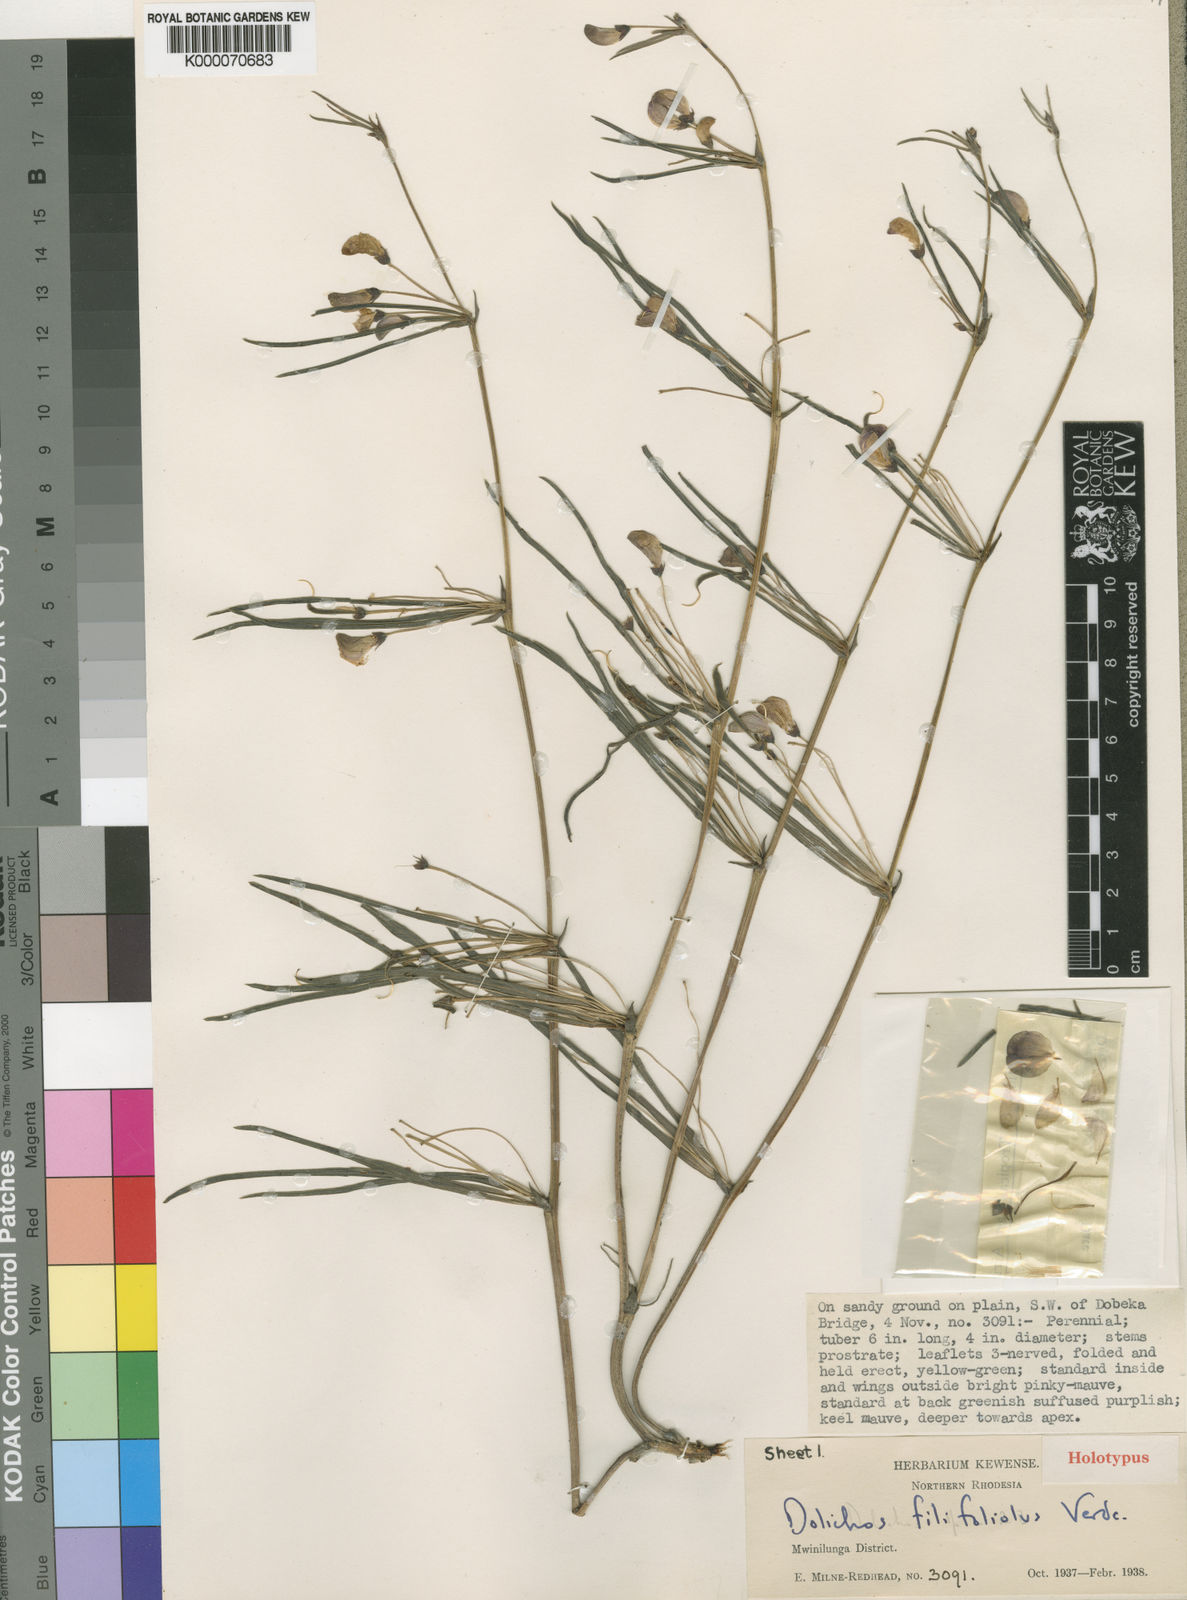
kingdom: Plantae
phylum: Tracheophyta
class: Magnoliopsida
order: Fabales
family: Fabaceae
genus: Dolichos
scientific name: Dolichos filifoliolus
